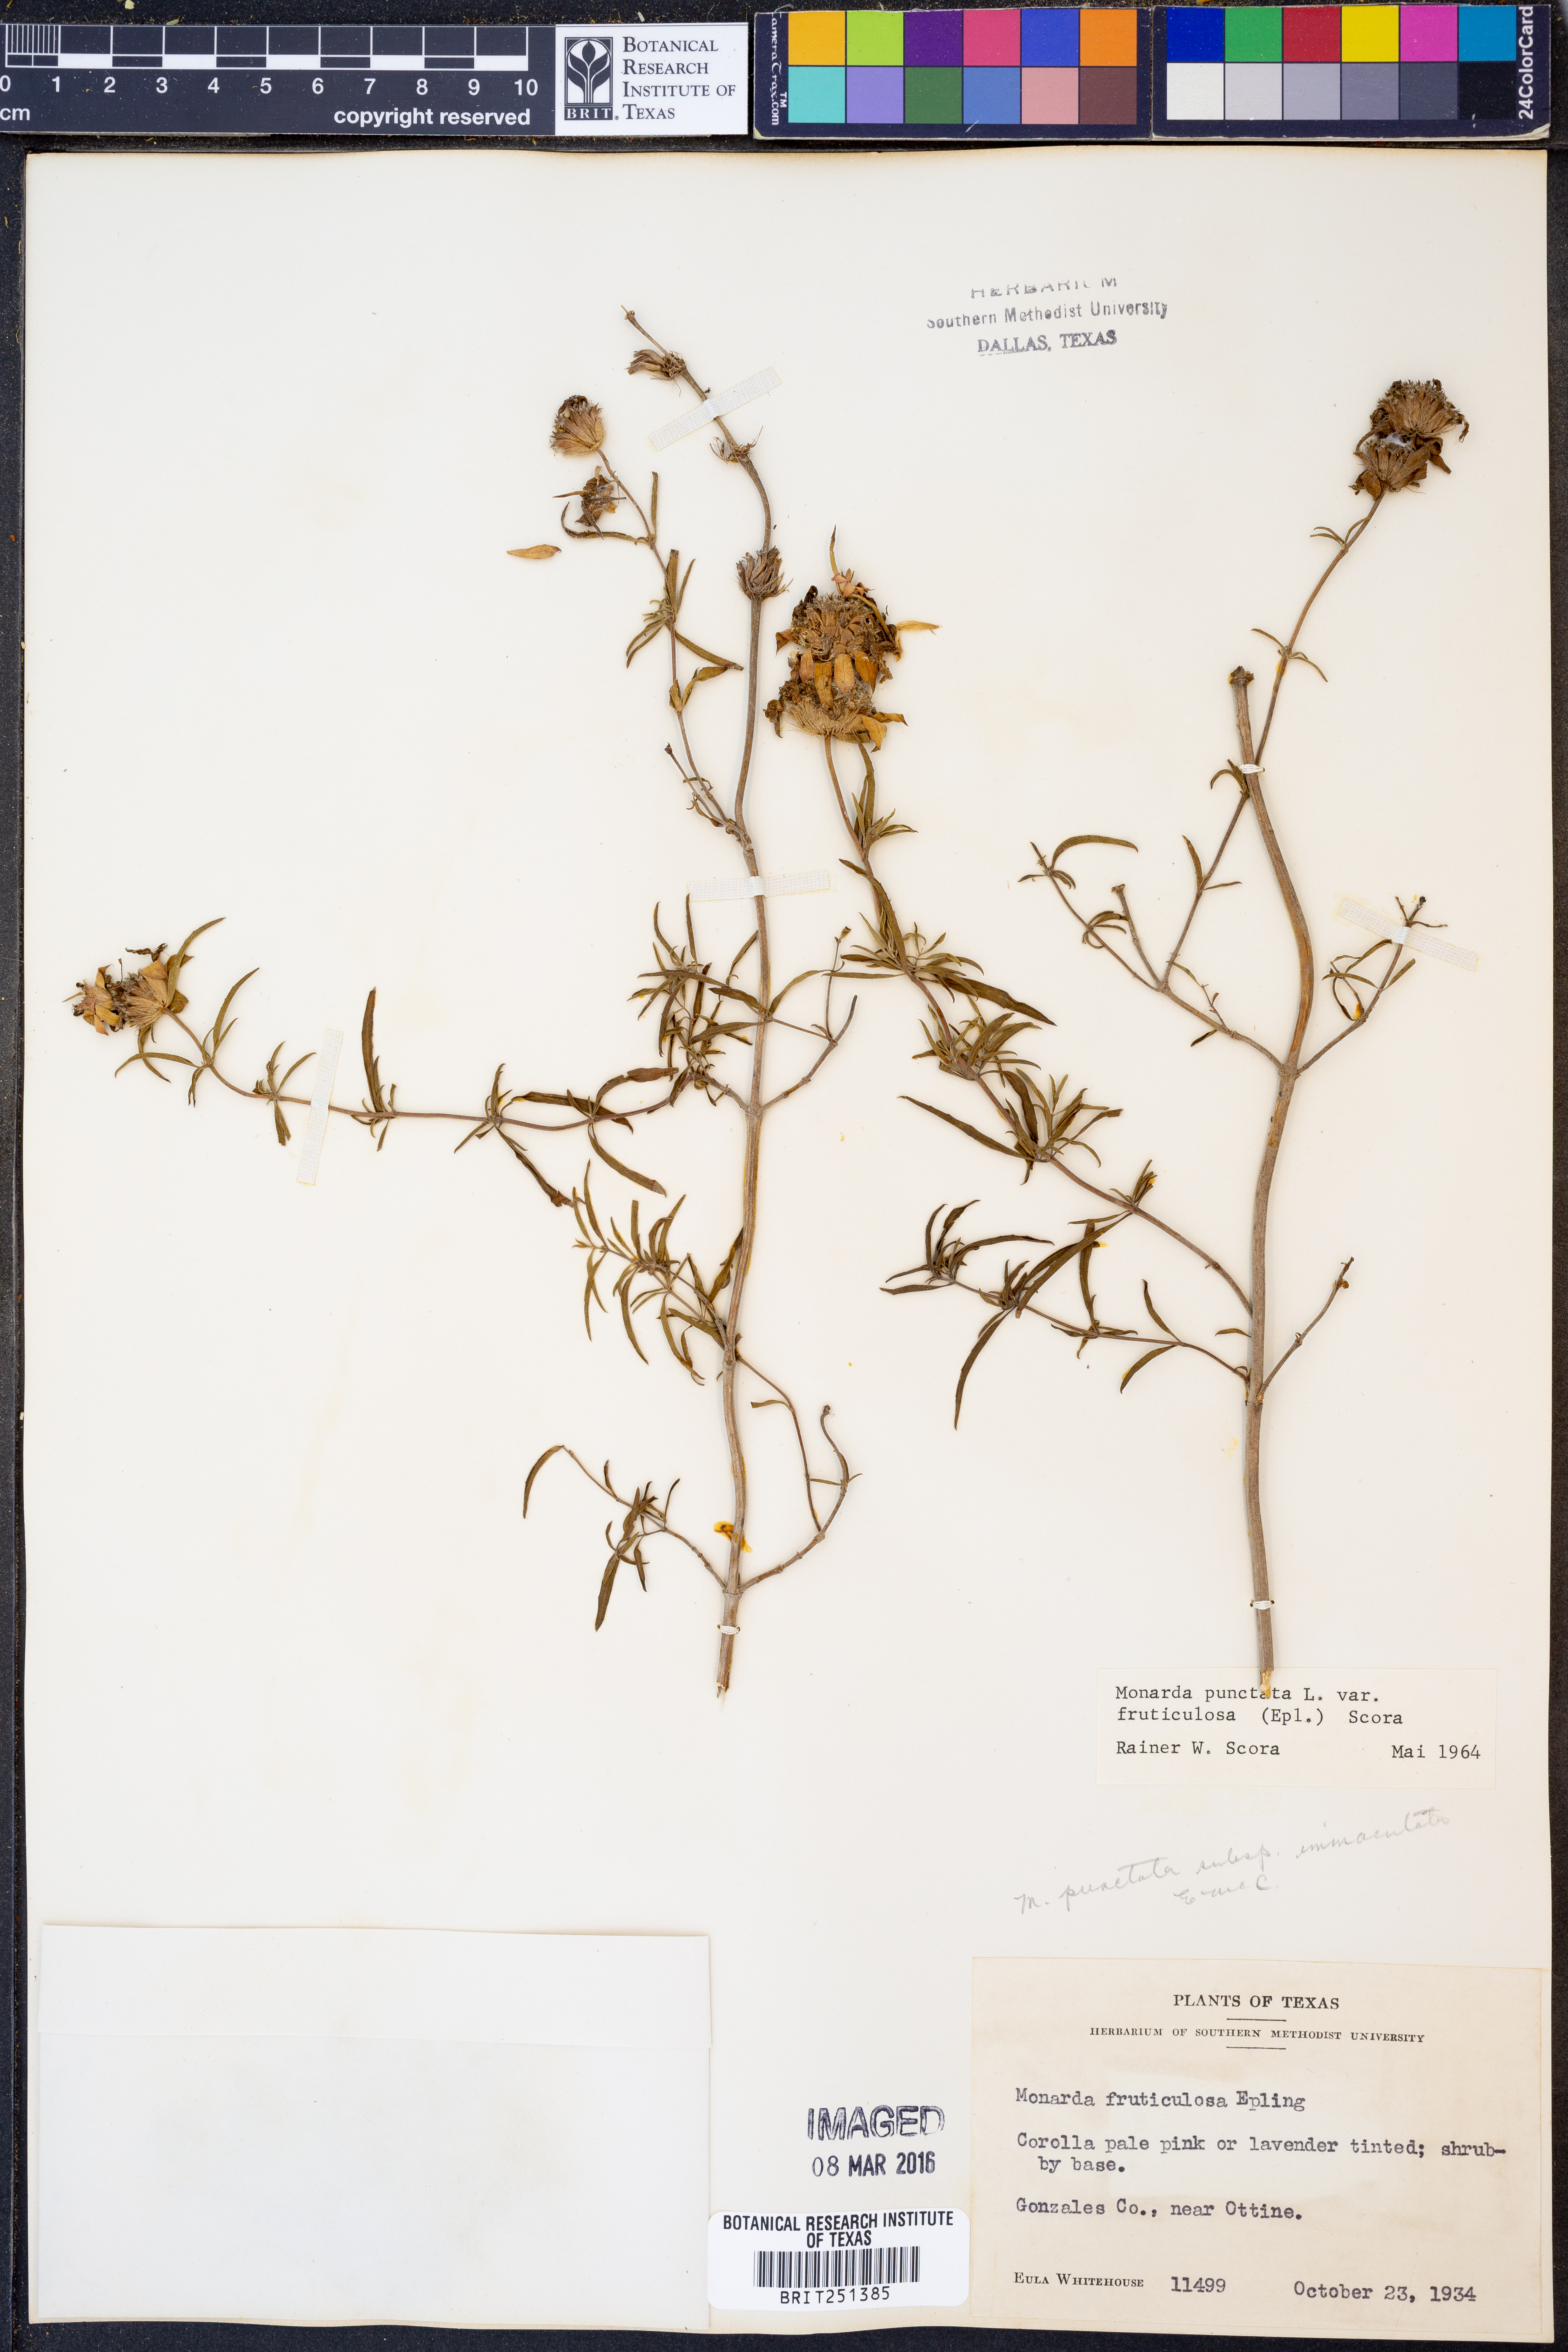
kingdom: Plantae
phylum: Tracheophyta
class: Magnoliopsida
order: Lamiales
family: Lamiaceae
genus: Monarda
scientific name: Monarda fruticulosa
